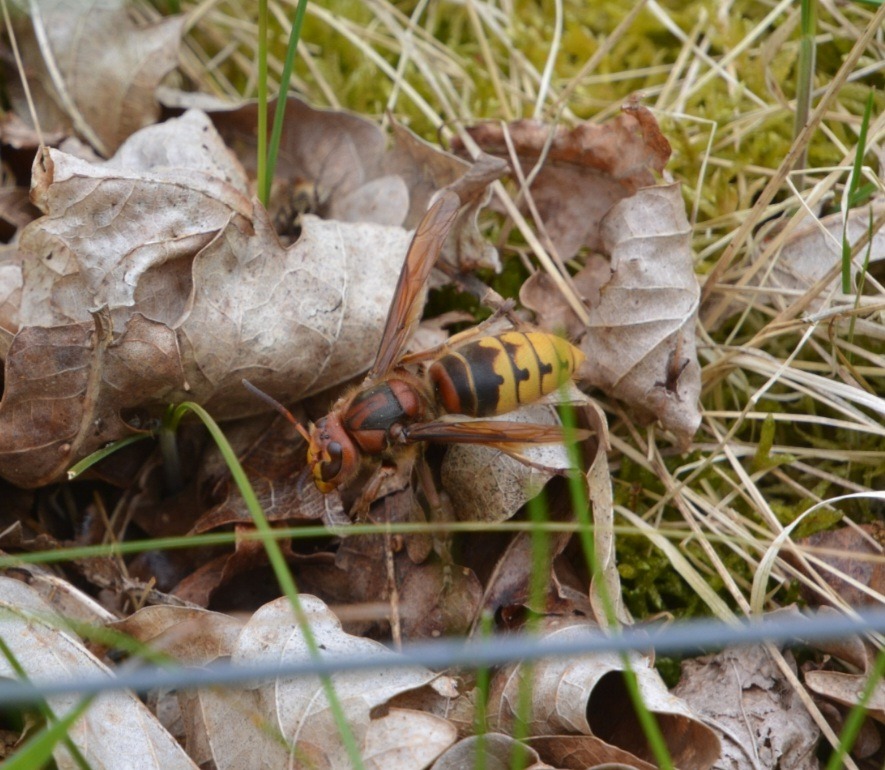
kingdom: Animalia
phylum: Arthropoda
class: Insecta
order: Hymenoptera
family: Vespidae
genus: Vespa
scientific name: Vespa crabro
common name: Stor gedehams
